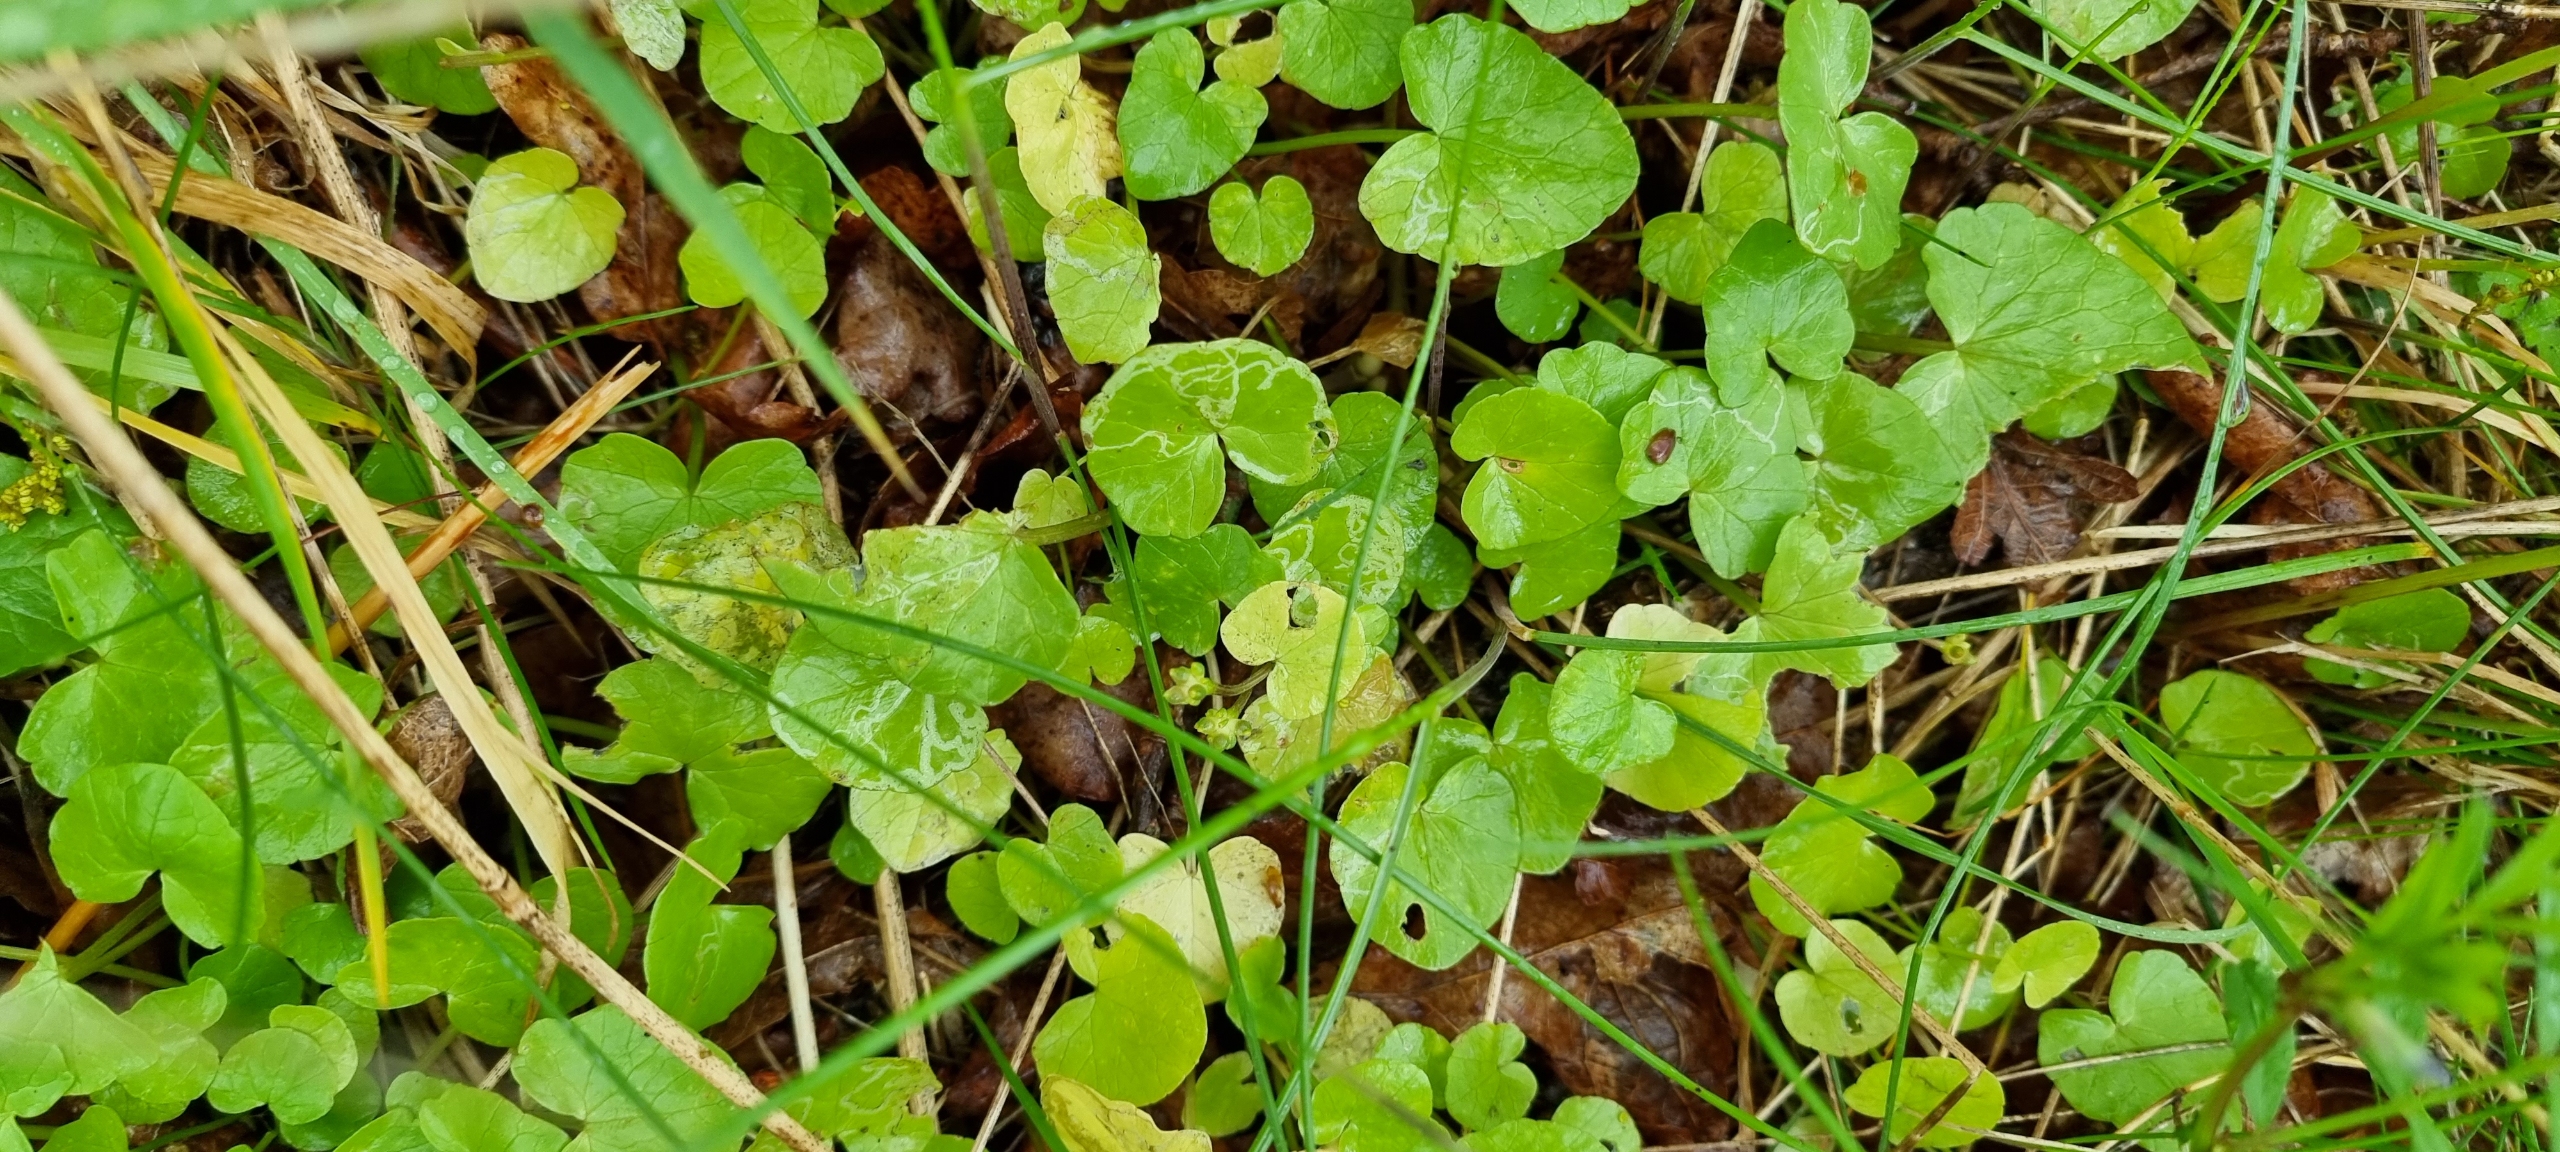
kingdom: Plantae
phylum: Tracheophyta
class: Magnoliopsida
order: Ranunculales
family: Ranunculaceae
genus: Ficaria
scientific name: Ficaria verna
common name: Vorterod
